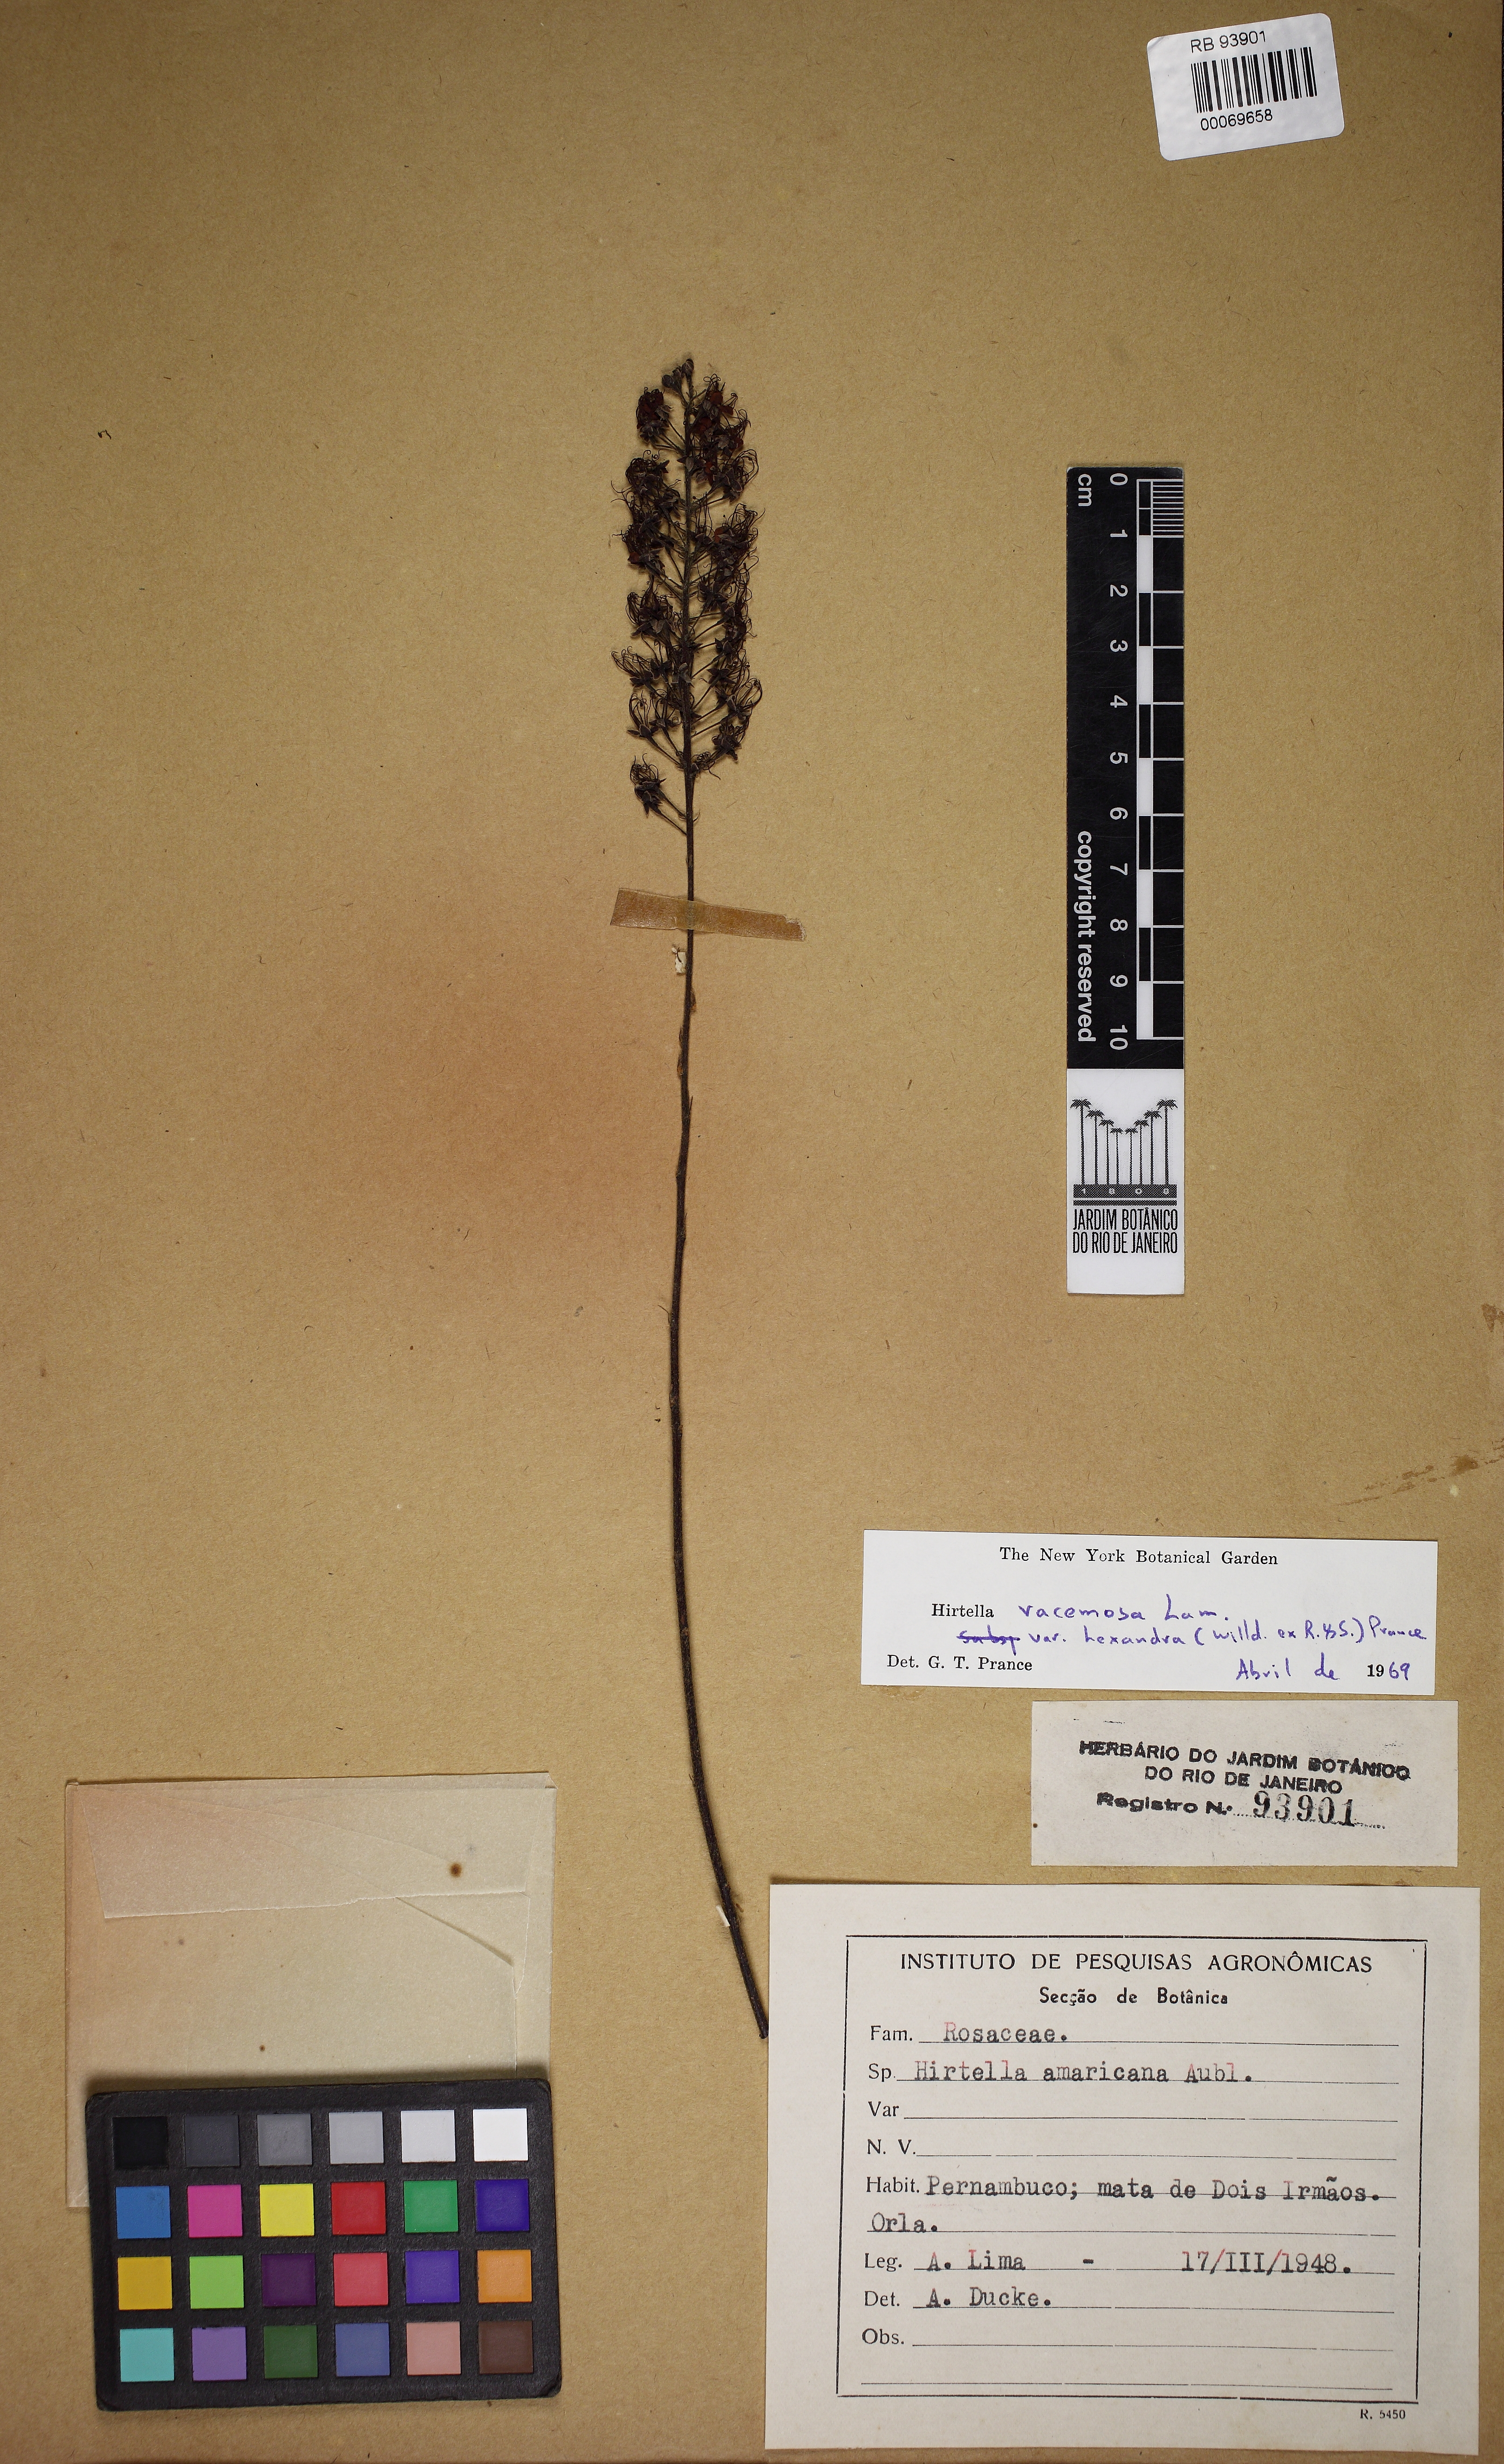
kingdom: Plantae
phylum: Tracheophyta
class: Magnoliopsida
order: Malpighiales
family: Chrysobalanaceae
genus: Hirtella
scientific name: Hirtella racemosa
